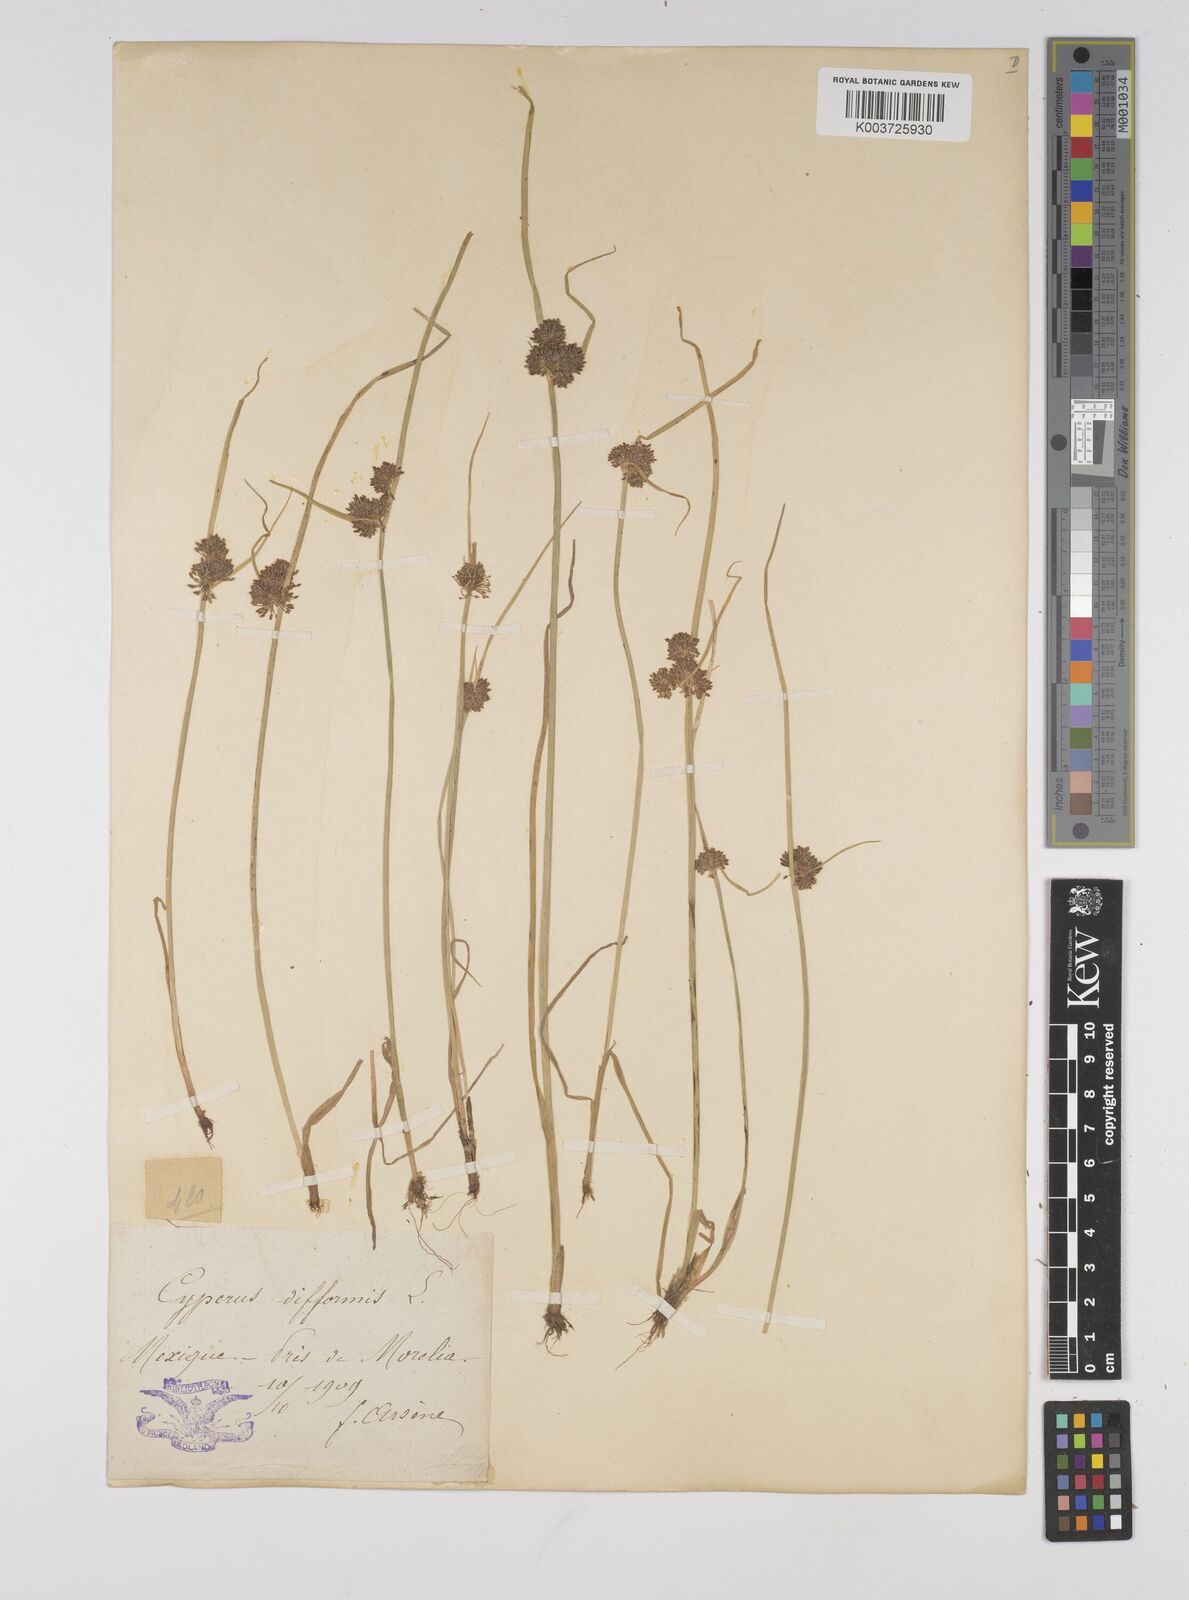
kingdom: Plantae
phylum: Tracheophyta
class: Liliopsida
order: Poales
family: Cyperaceae
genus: Cyperus
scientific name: Cyperus difformis
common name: Variable flatsedge
